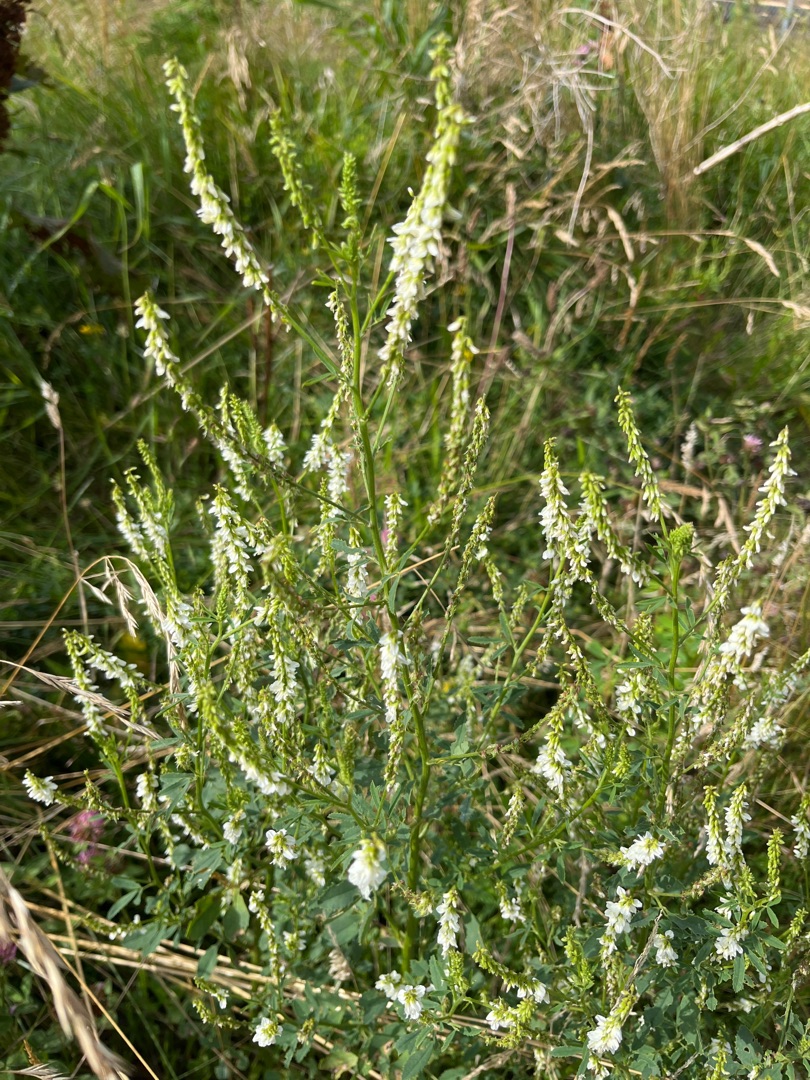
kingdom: Plantae
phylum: Tracheophyta
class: Magnoliopsida
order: Fabales
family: Fabaceae
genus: Melilotus
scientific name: Melilotus albus
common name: Hvid stenkløver
